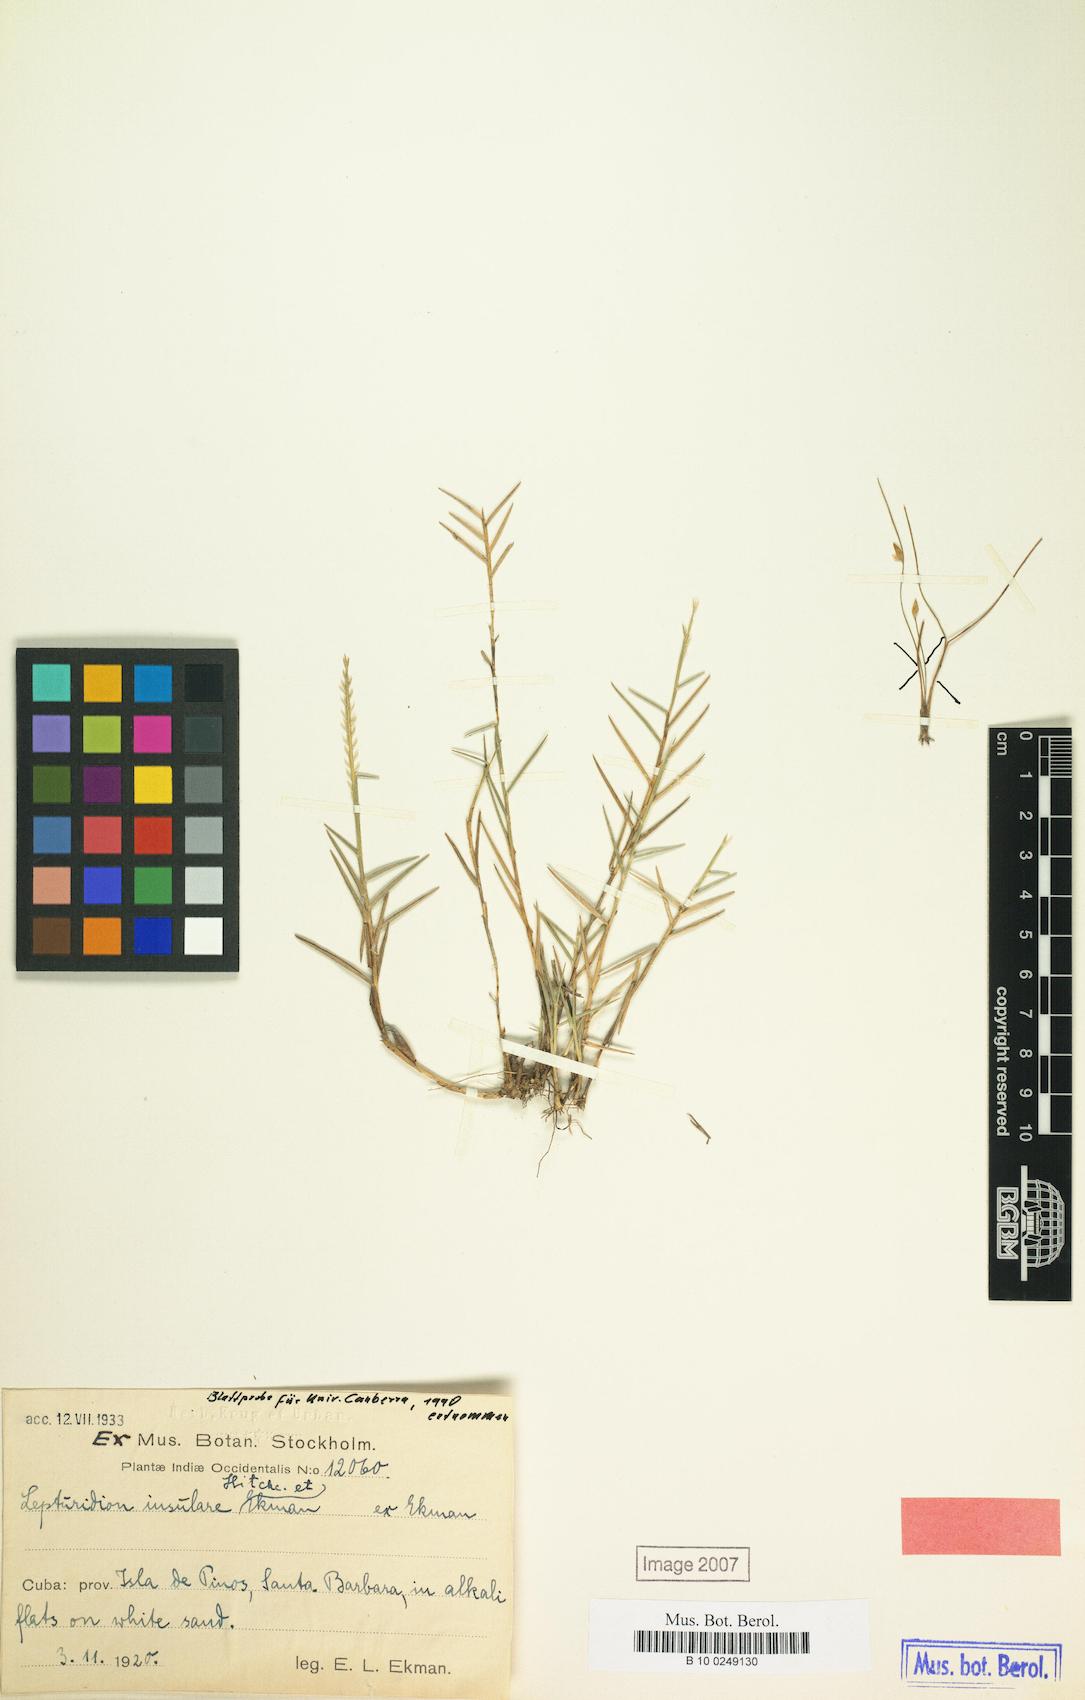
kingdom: Plantae
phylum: Tracheophyta
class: Liliopsida
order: Poales
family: Poaceae
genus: Lepturidium
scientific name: Lepturidium insulare
